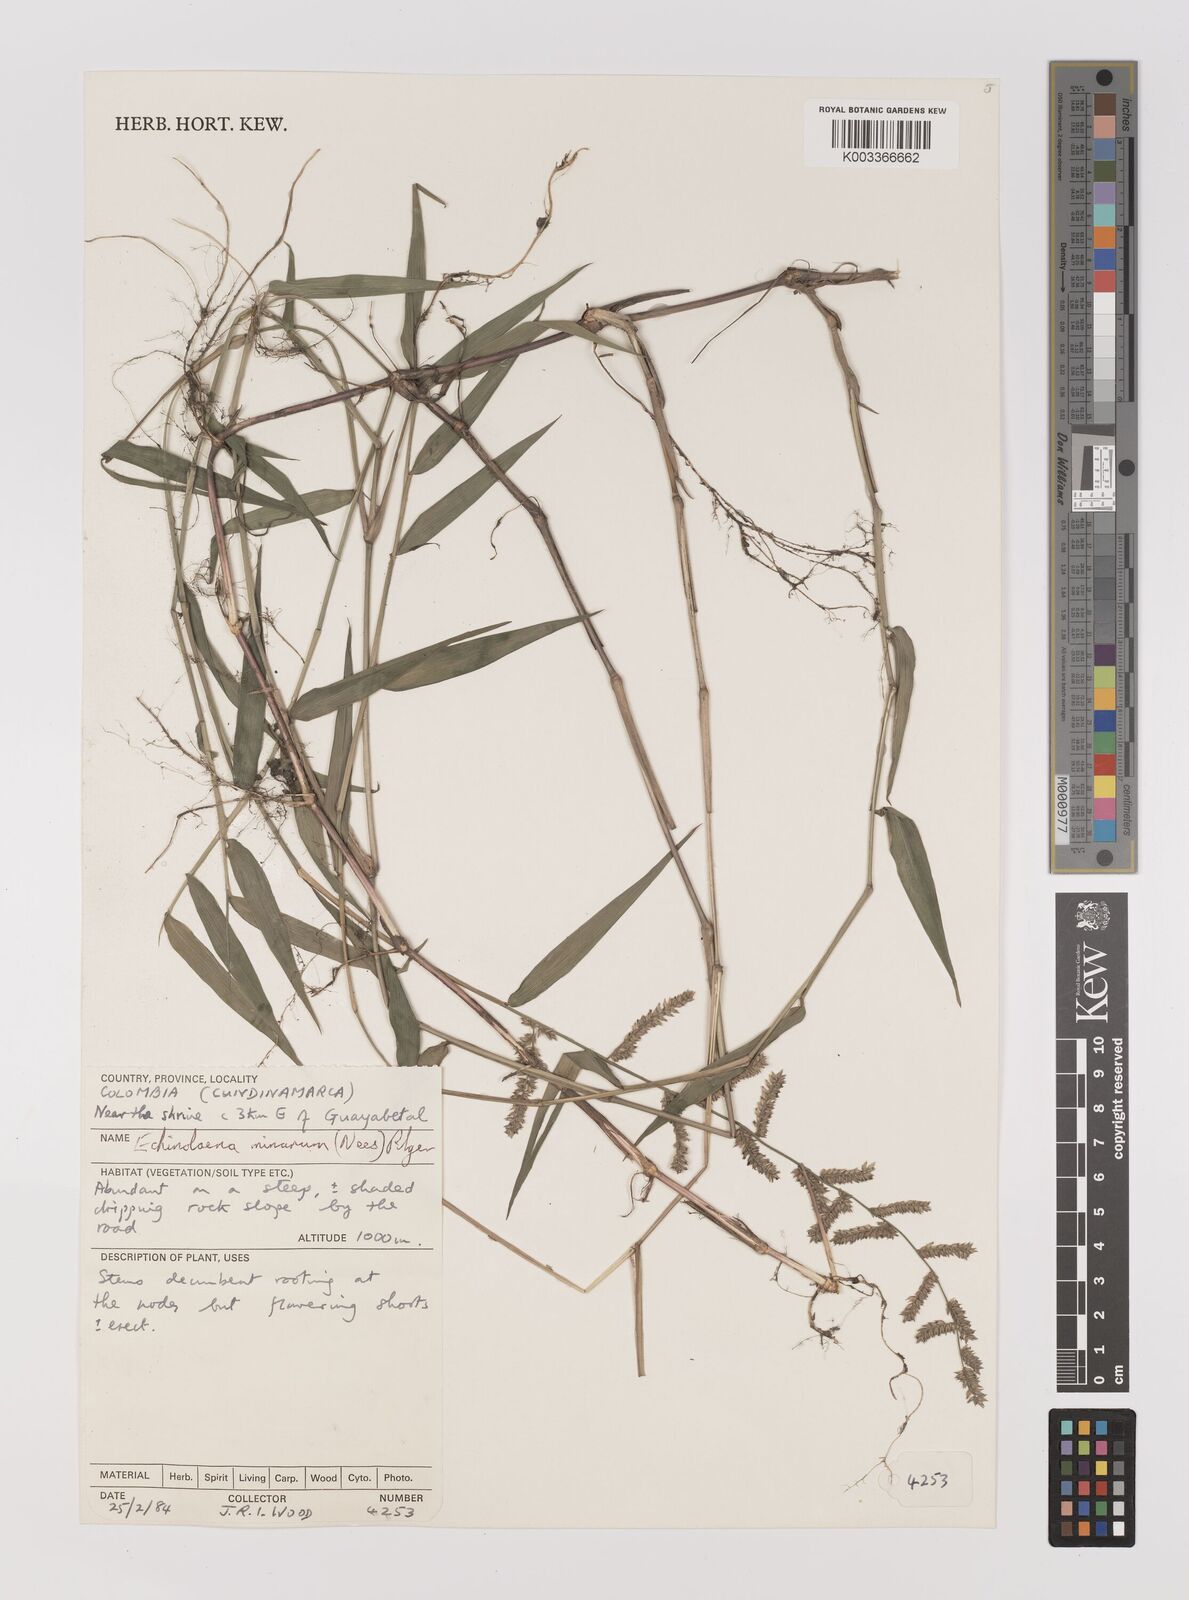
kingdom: Plantae
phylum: Tracheophyta
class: Liliopsida
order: Poales
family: Poaceae
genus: Oedochloa
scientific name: Oedochloa minarum
